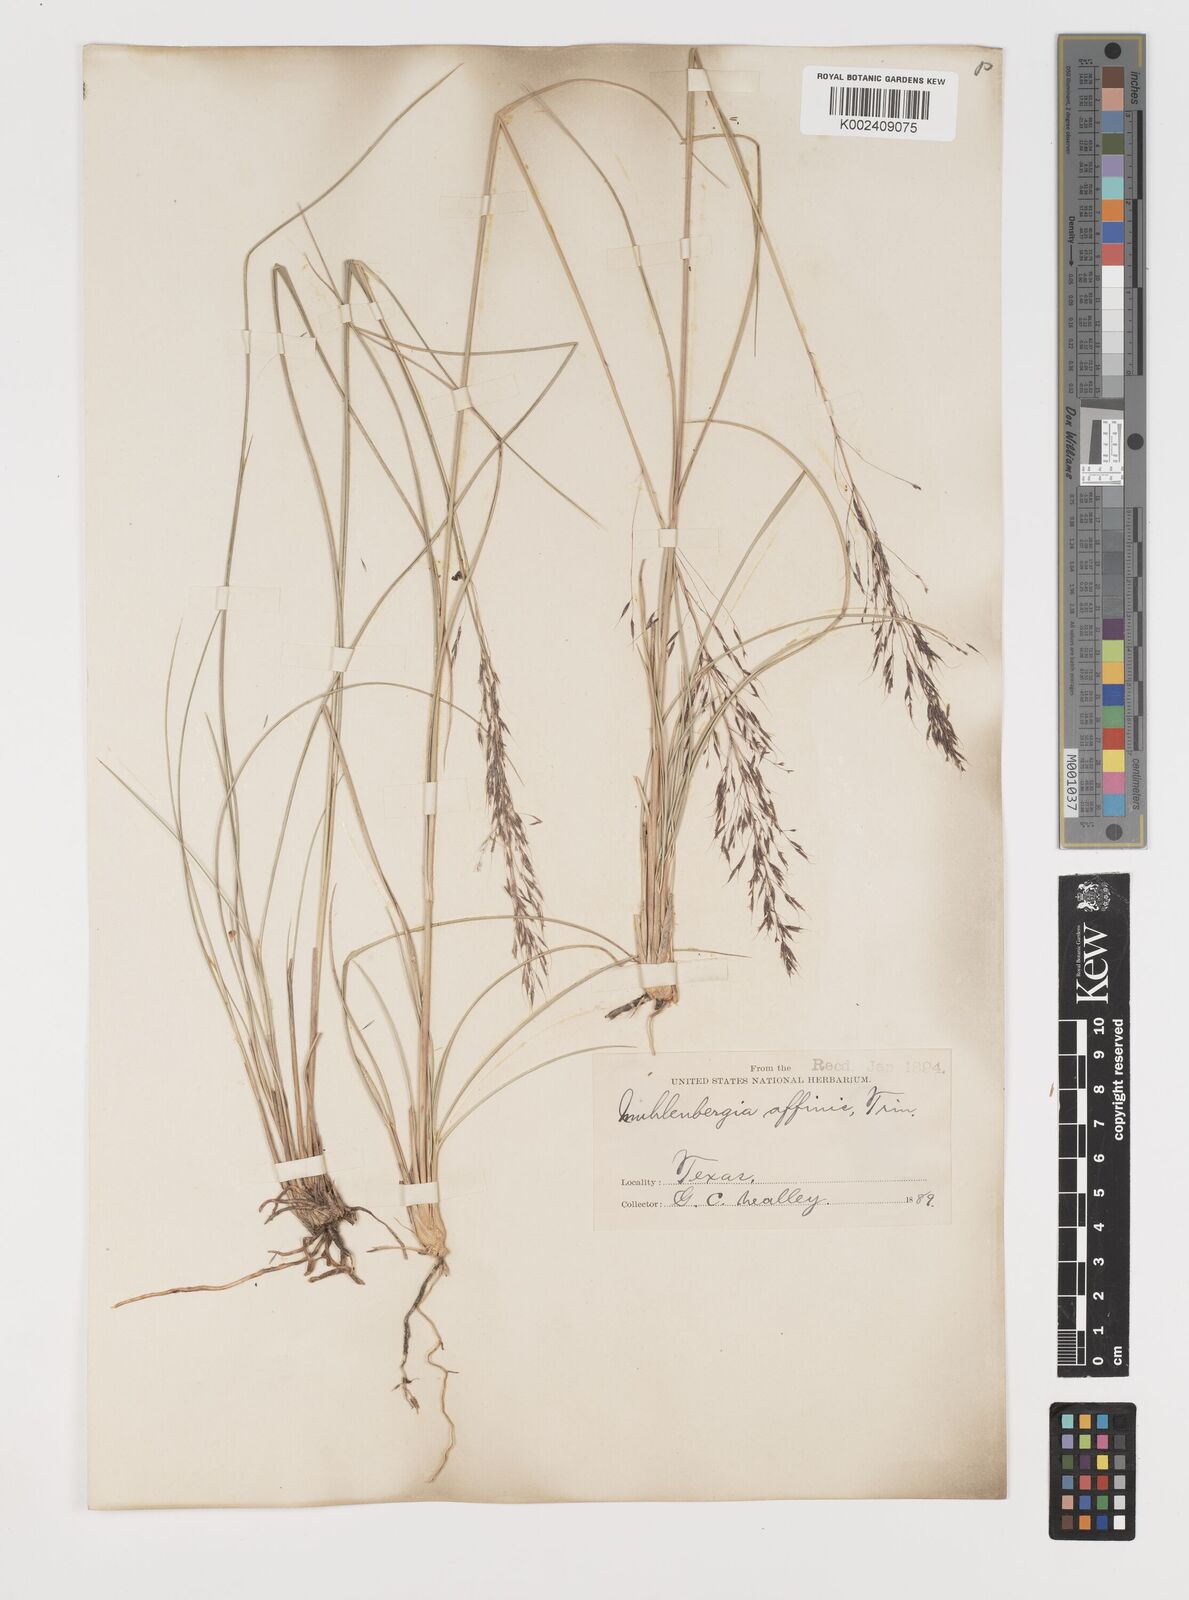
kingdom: Plantae
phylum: Tracheophyta
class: Liliopsida
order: Poales
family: Poaceae
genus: Muhlenbergia
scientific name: Muhlenbergia rigida
